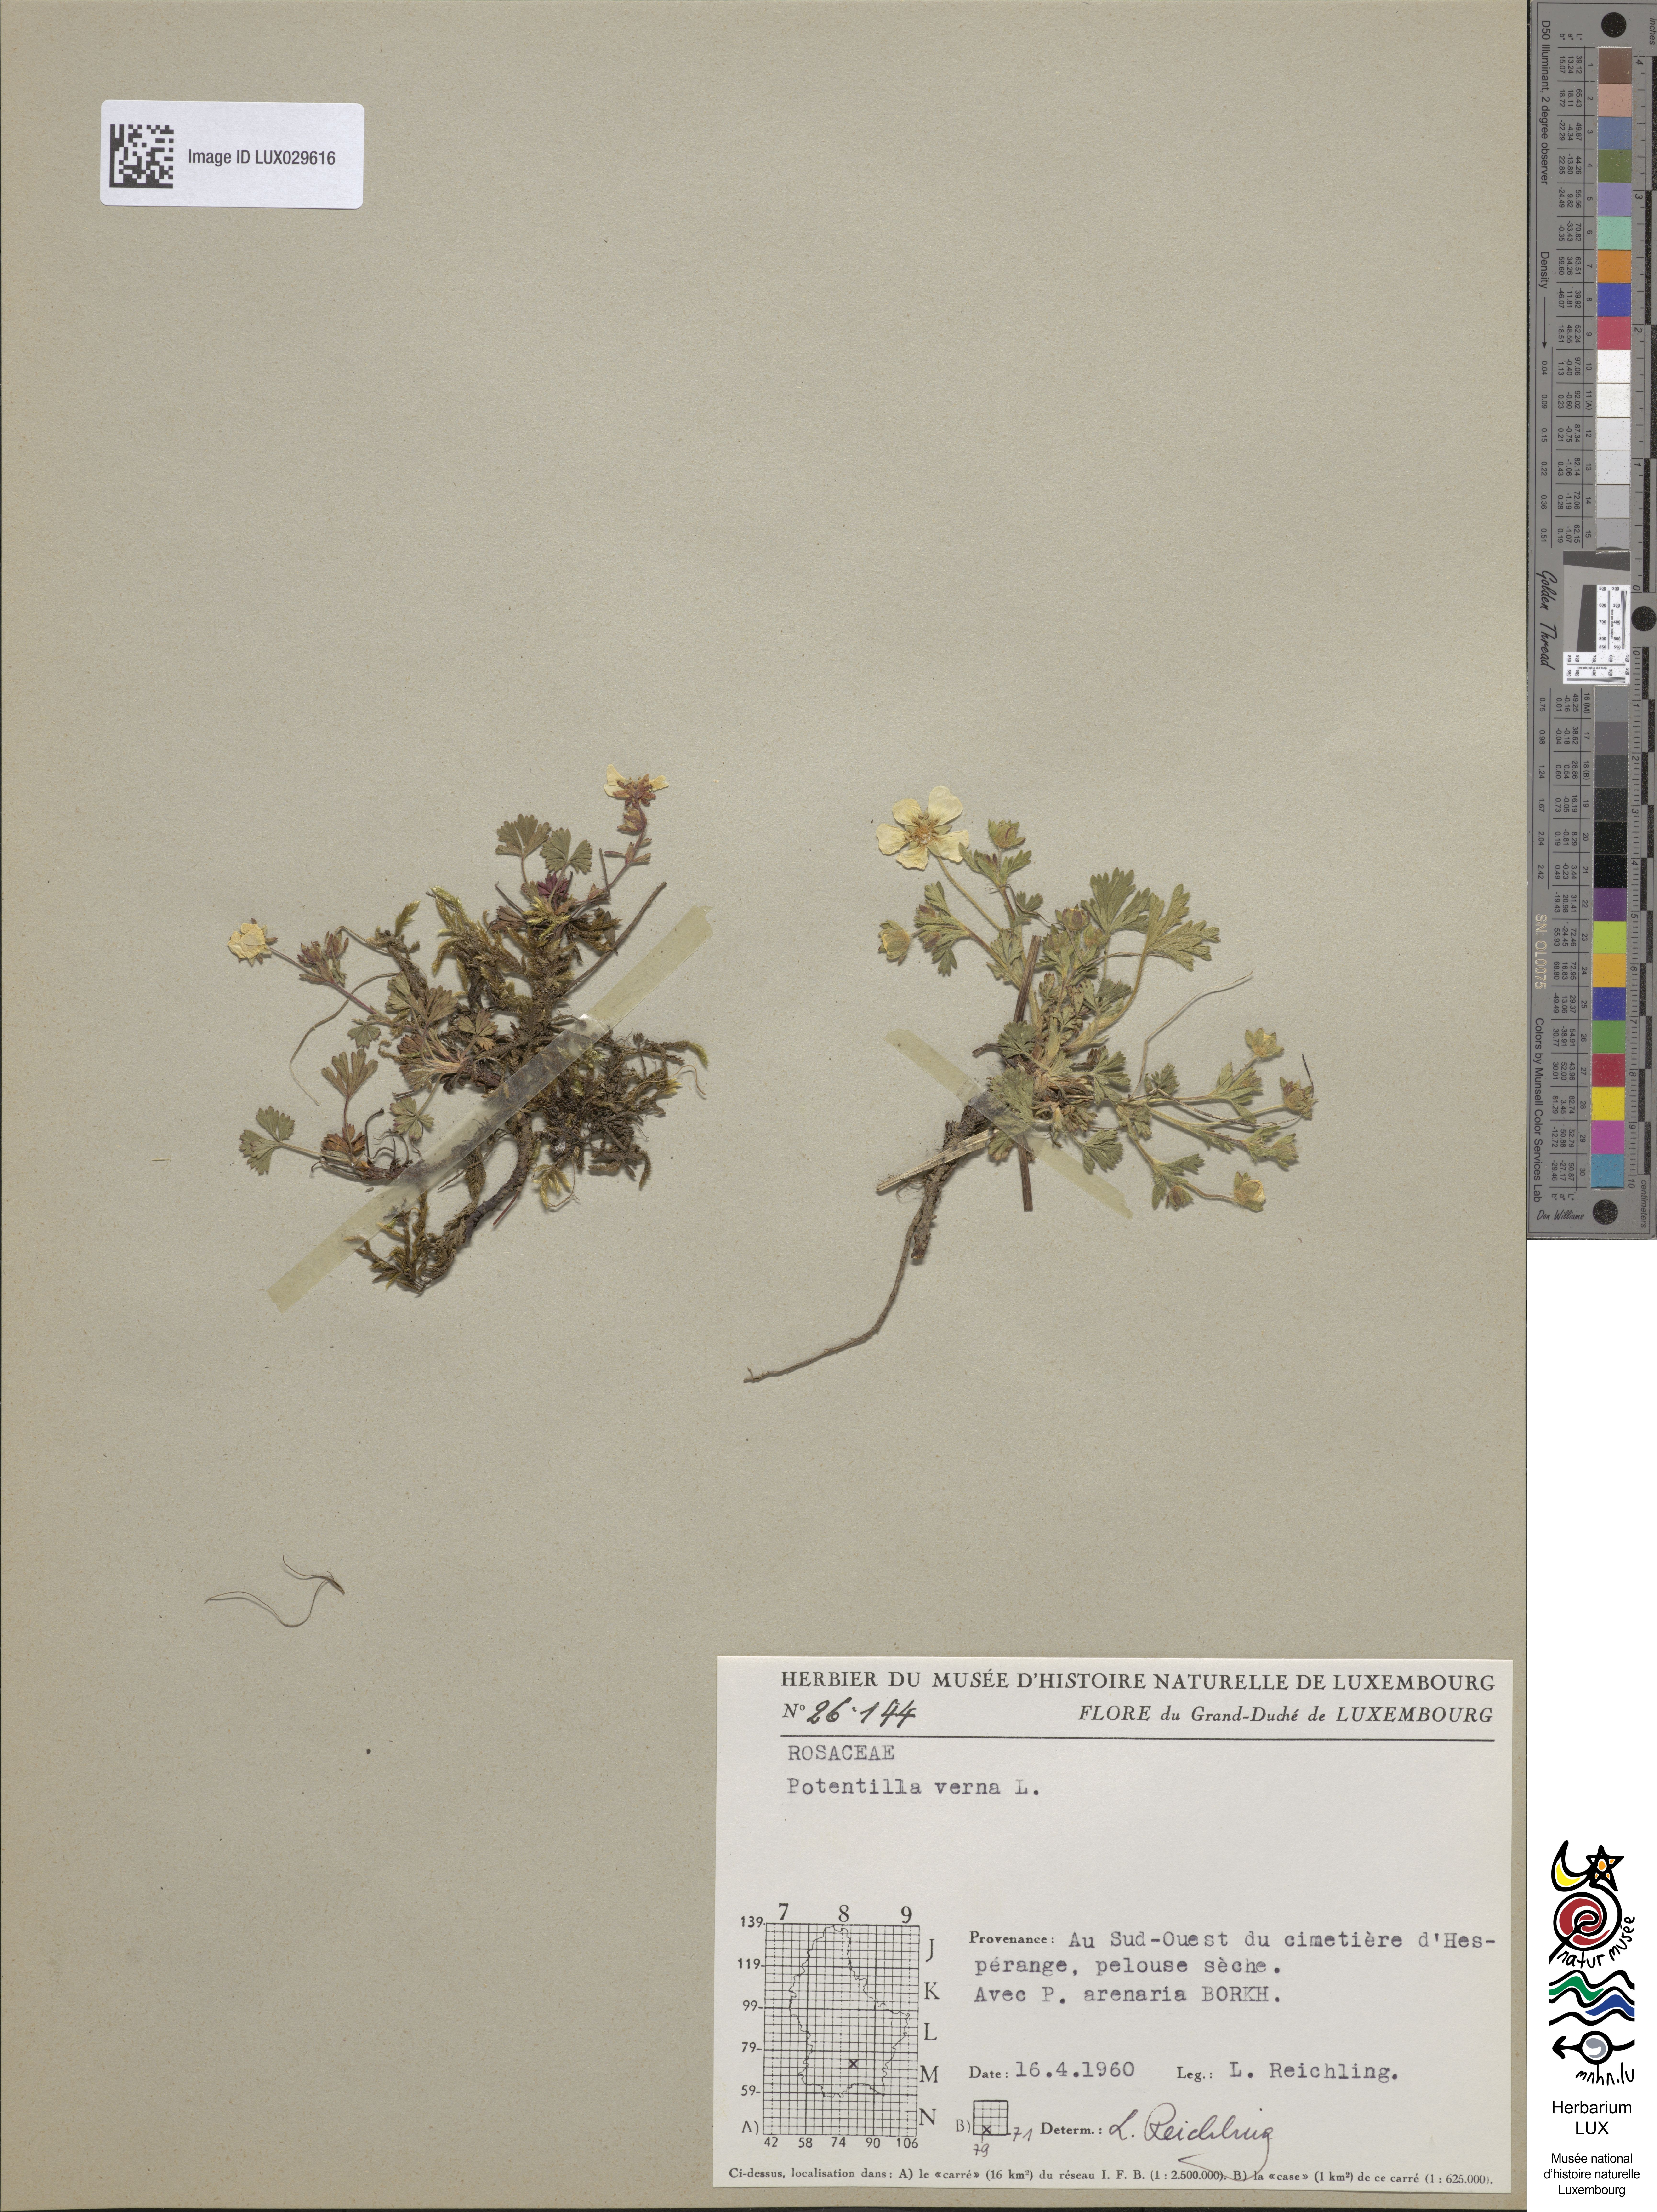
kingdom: Plantae
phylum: Tracheophyta
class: Magnoliopsida
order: Rosales
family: Rosaceae
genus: Potentilla
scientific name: Potentilla verna
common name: Spring cinquefoil
